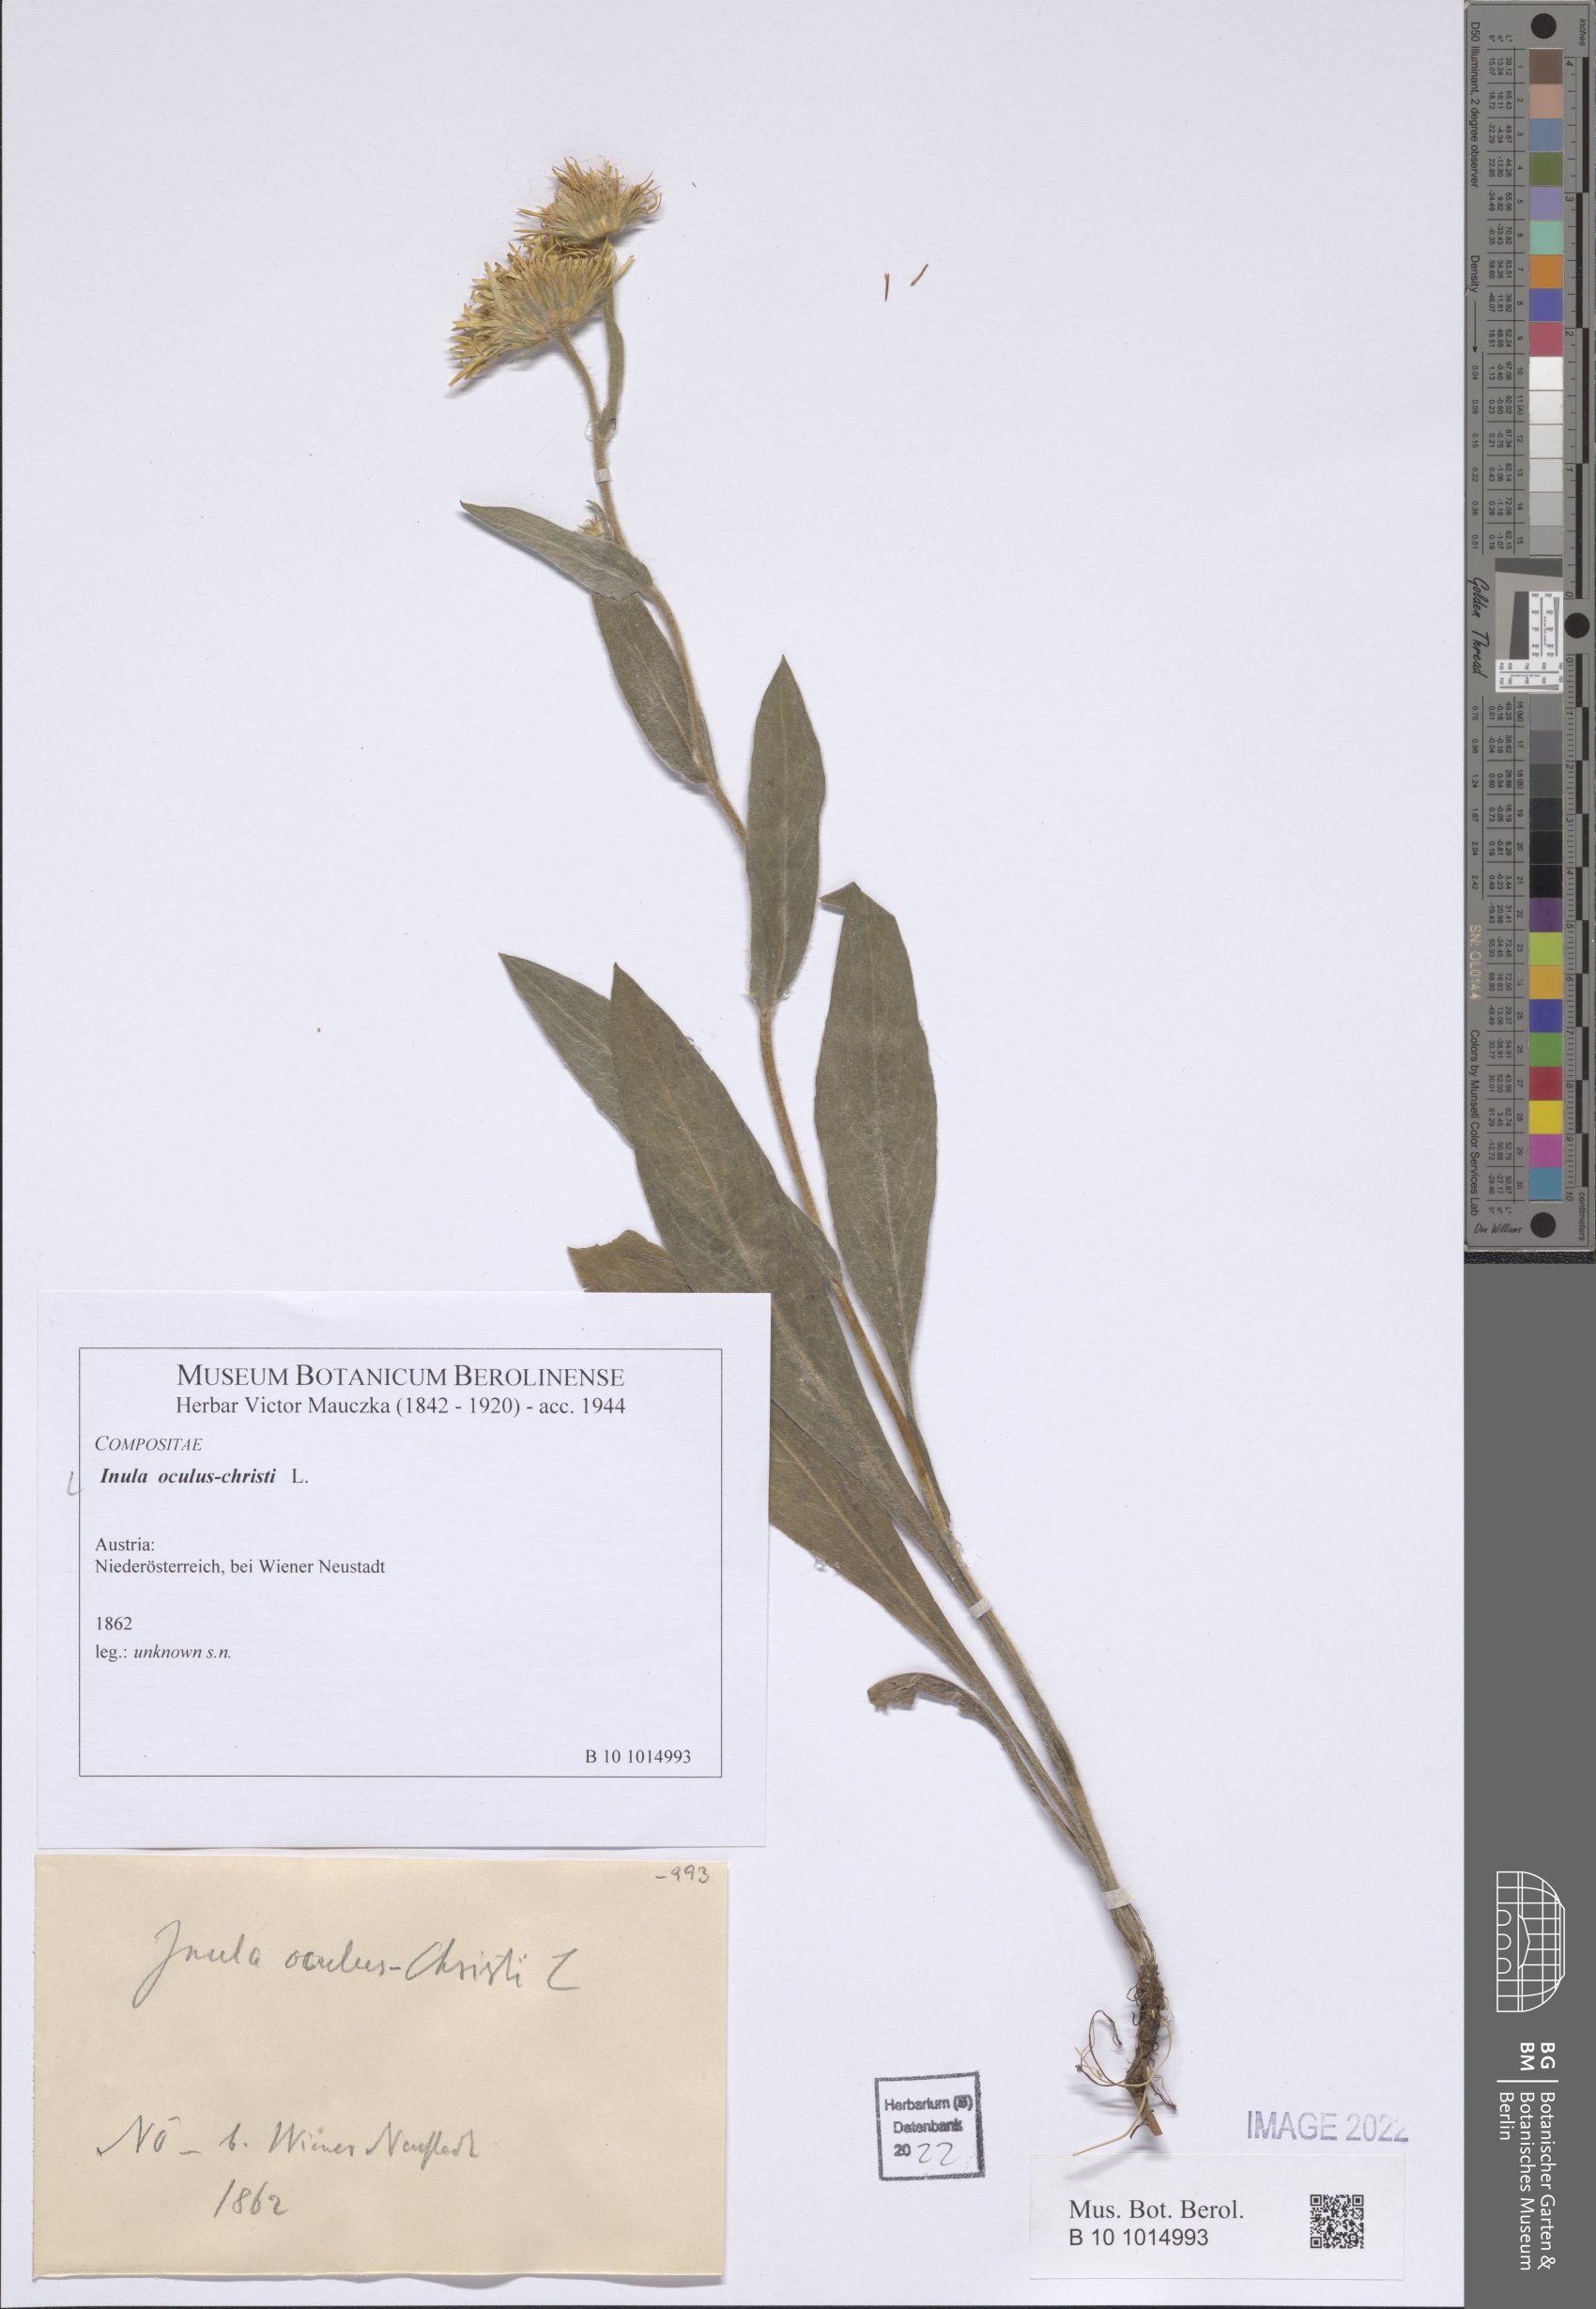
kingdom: Plantae
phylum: Tracheophyta
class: Magnoliopsida
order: Asterales
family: Asteraceae
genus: Pentanema
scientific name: Pentanema oculus-christi
